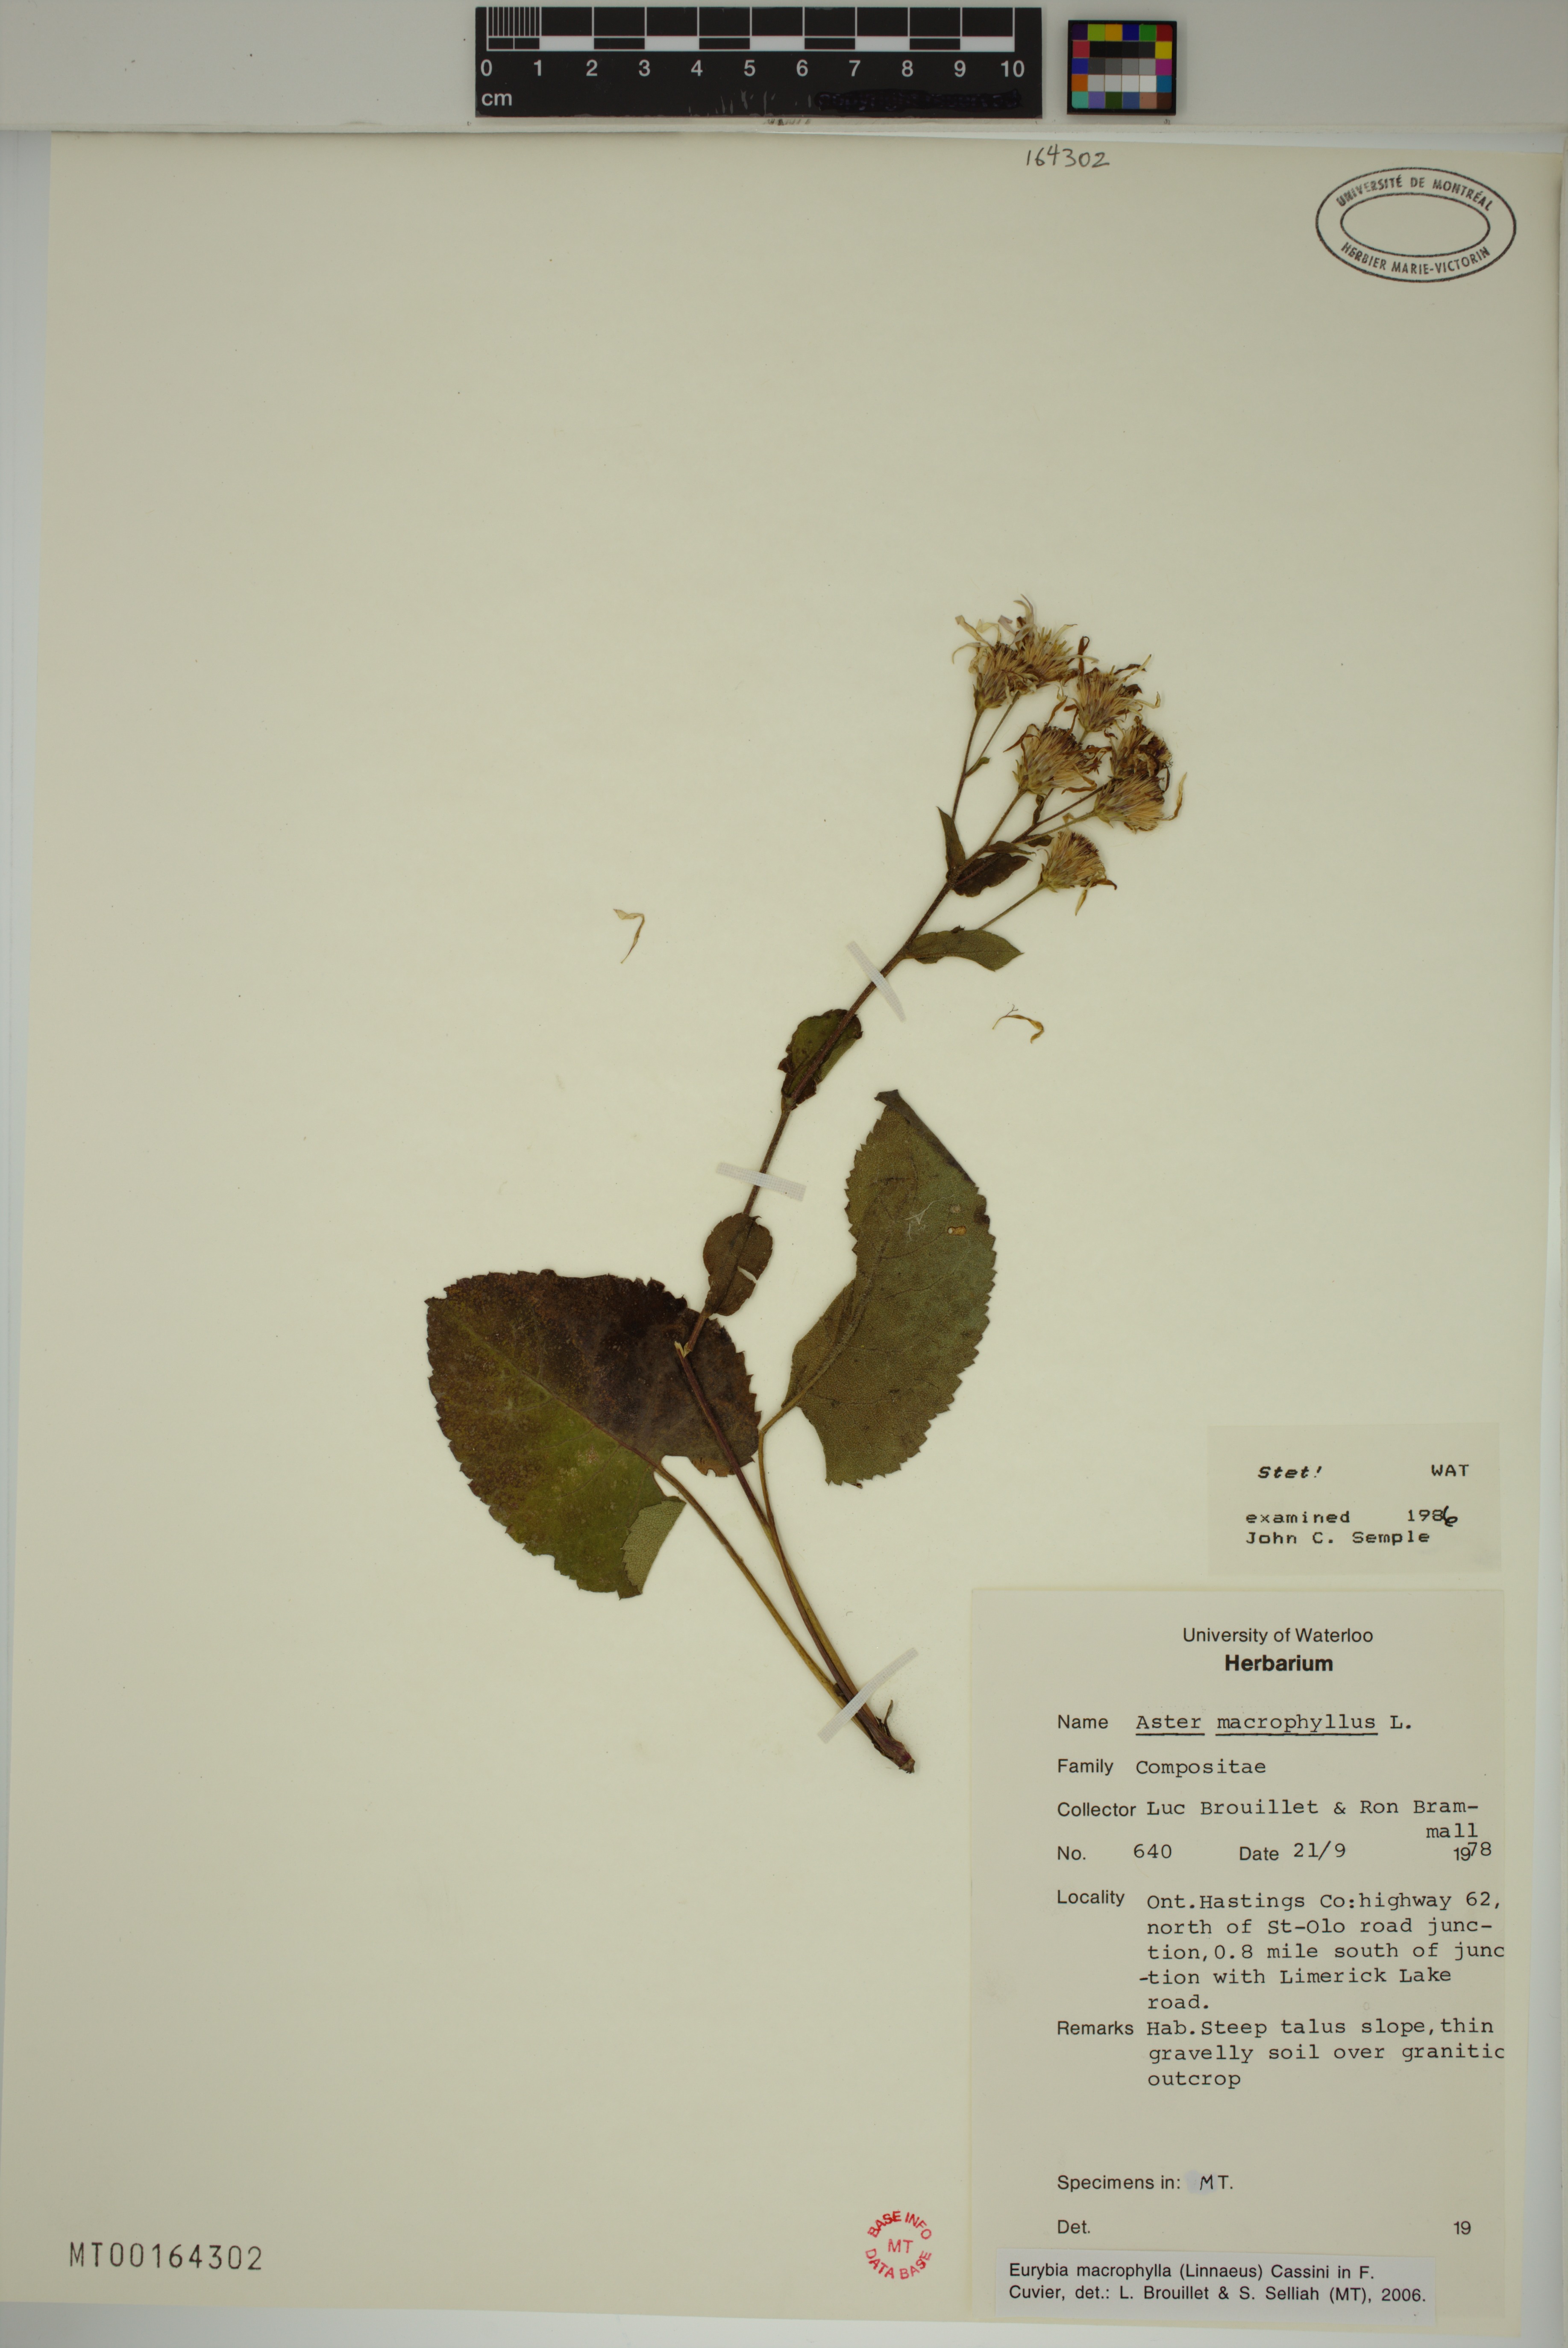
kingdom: Plantae
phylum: Tracheophyta
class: Magnoliopsida
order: Asterales
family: Asteraceae
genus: Eurybia
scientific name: Eurybia macrophylla
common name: Big-leaved aster
